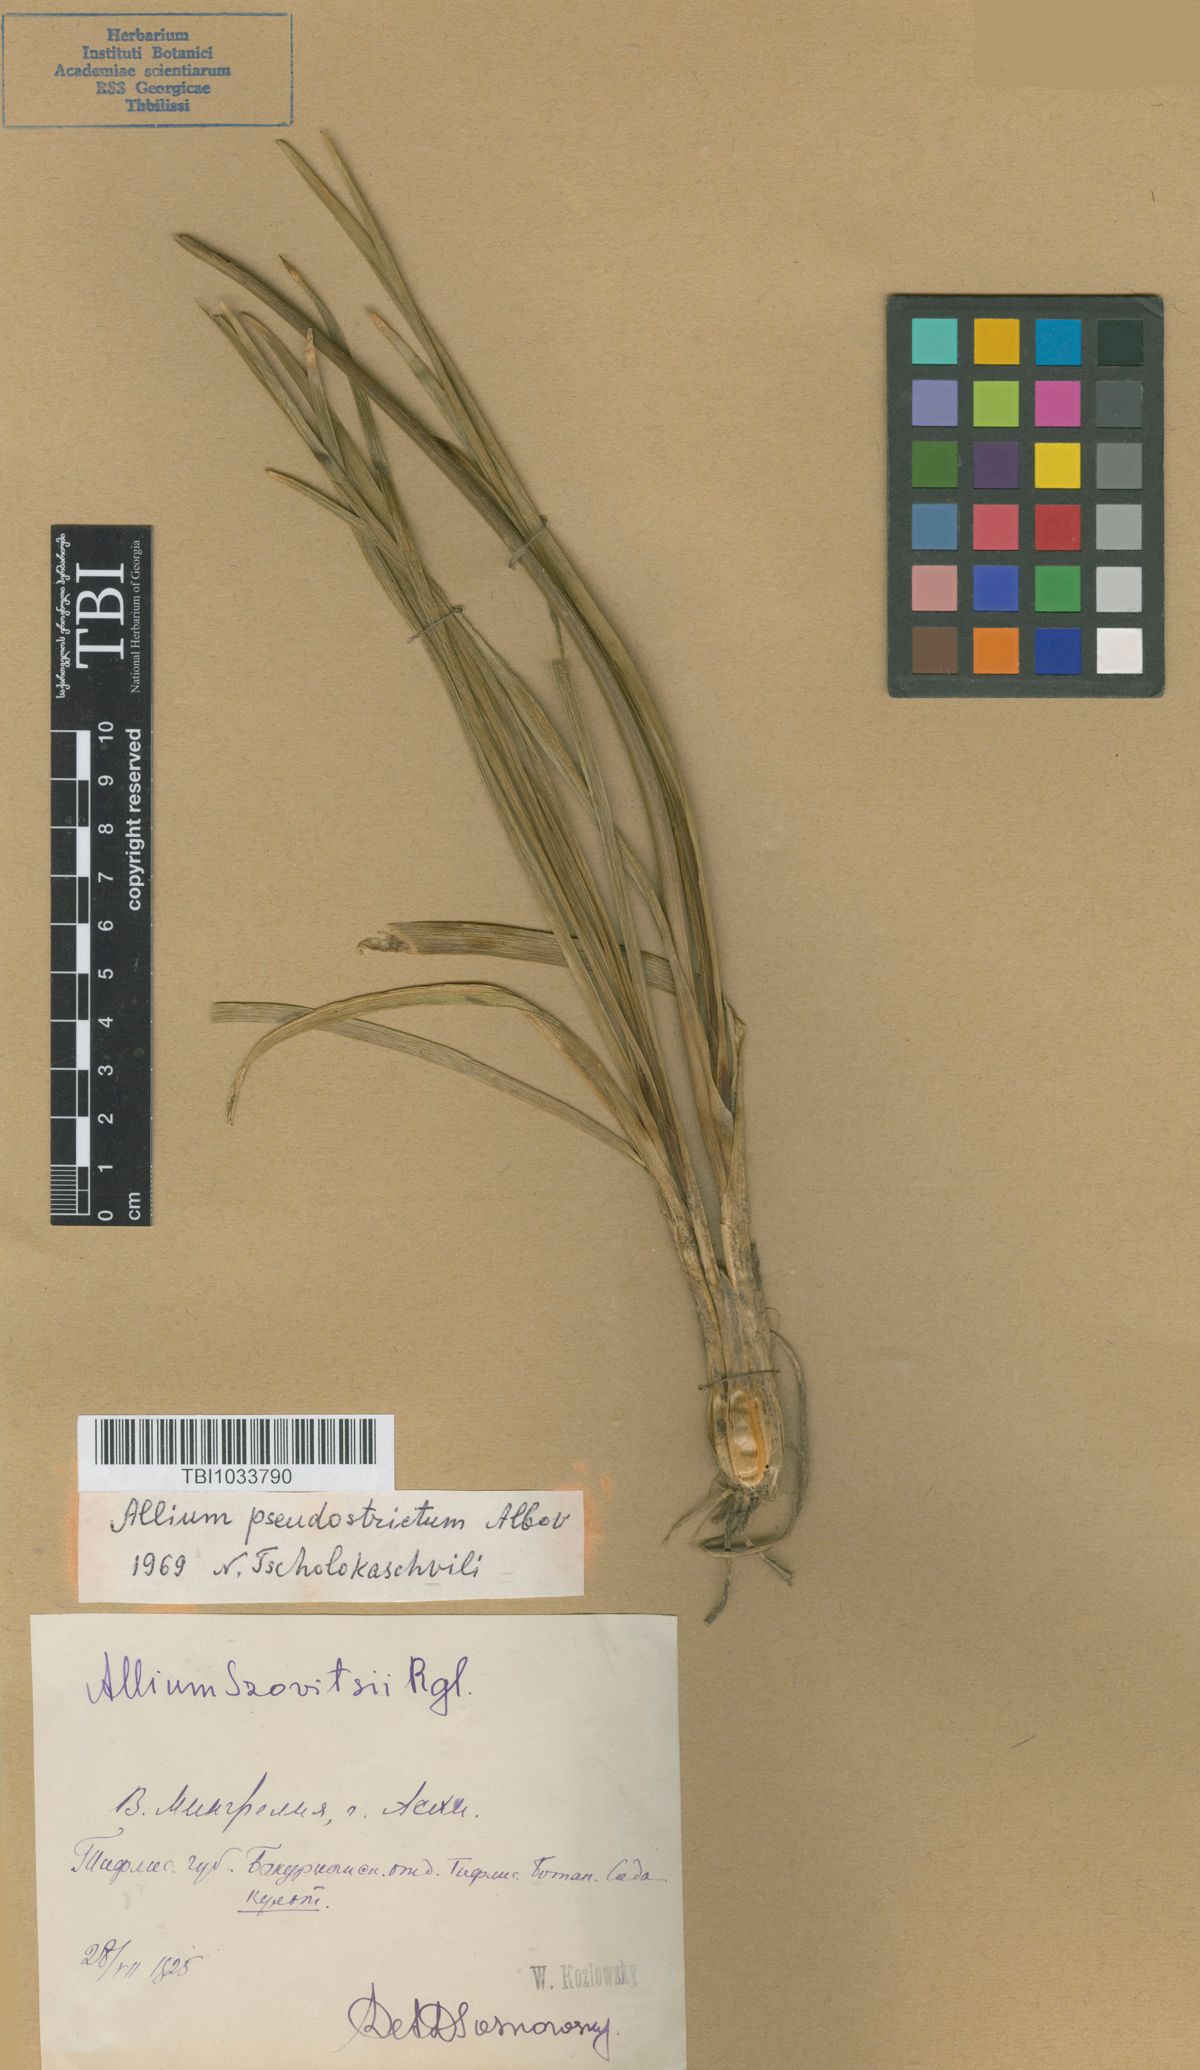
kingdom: Plantae
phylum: Tracheophyta
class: Liliopsida
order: Asparagales
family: Amaryllidaceae
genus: Allium
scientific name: Allium pseudostrictum
